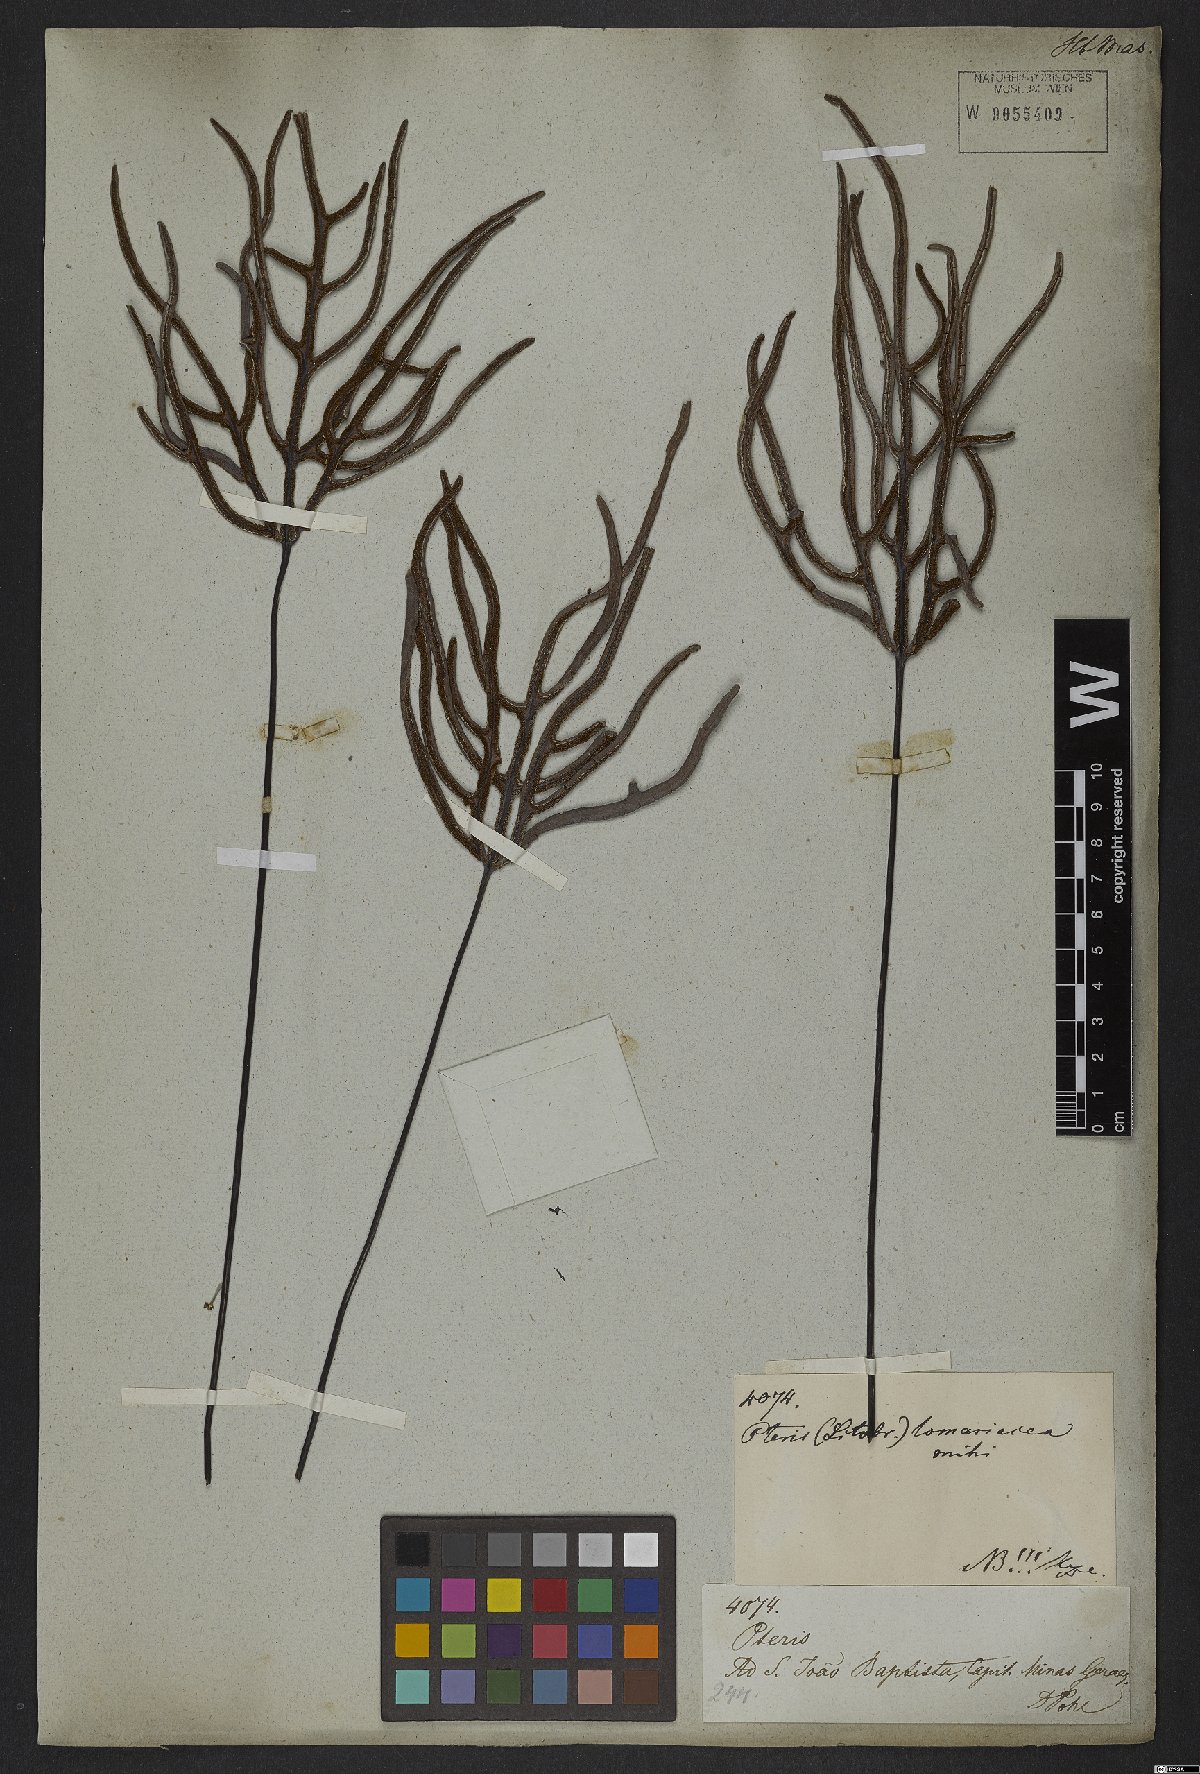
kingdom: Plantae
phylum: Tracheophyta
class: Polypodiopsida
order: Polypodiales
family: Pteridaceae
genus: Lytoneuron
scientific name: Lytoneuron lomariaceum
